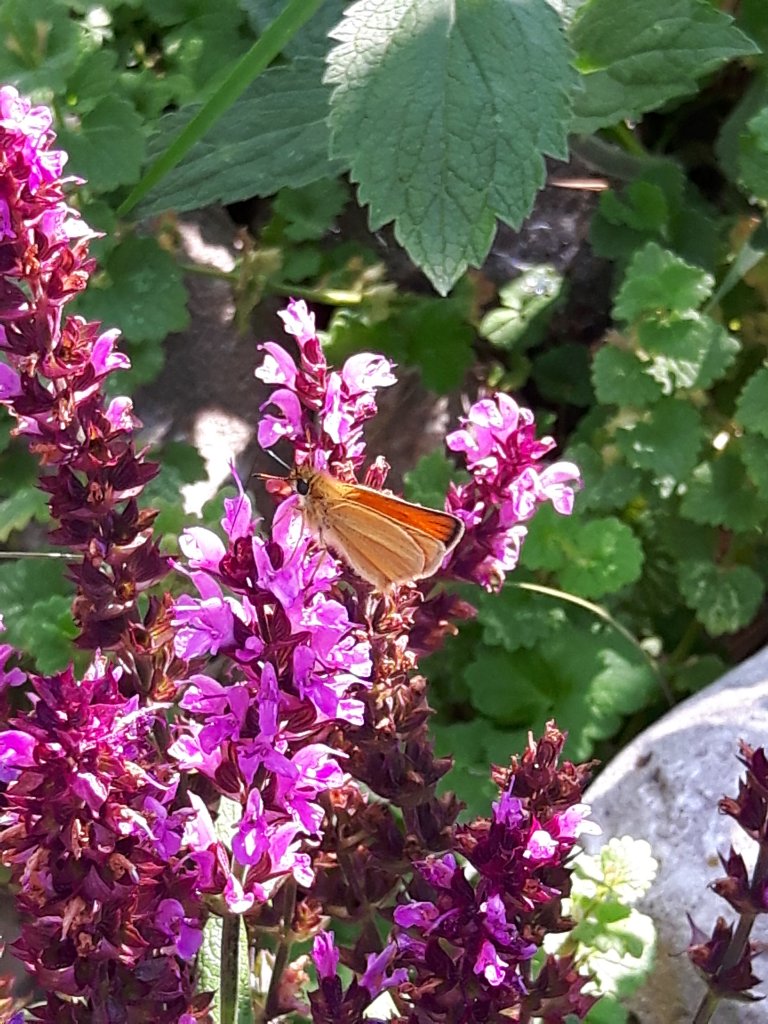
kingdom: Animalia
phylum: Arthropoda
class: Insecta
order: Lepidoptera
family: Hesperiidae
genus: Thymelicus
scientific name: Thymelicus lineola
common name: European Skipper
